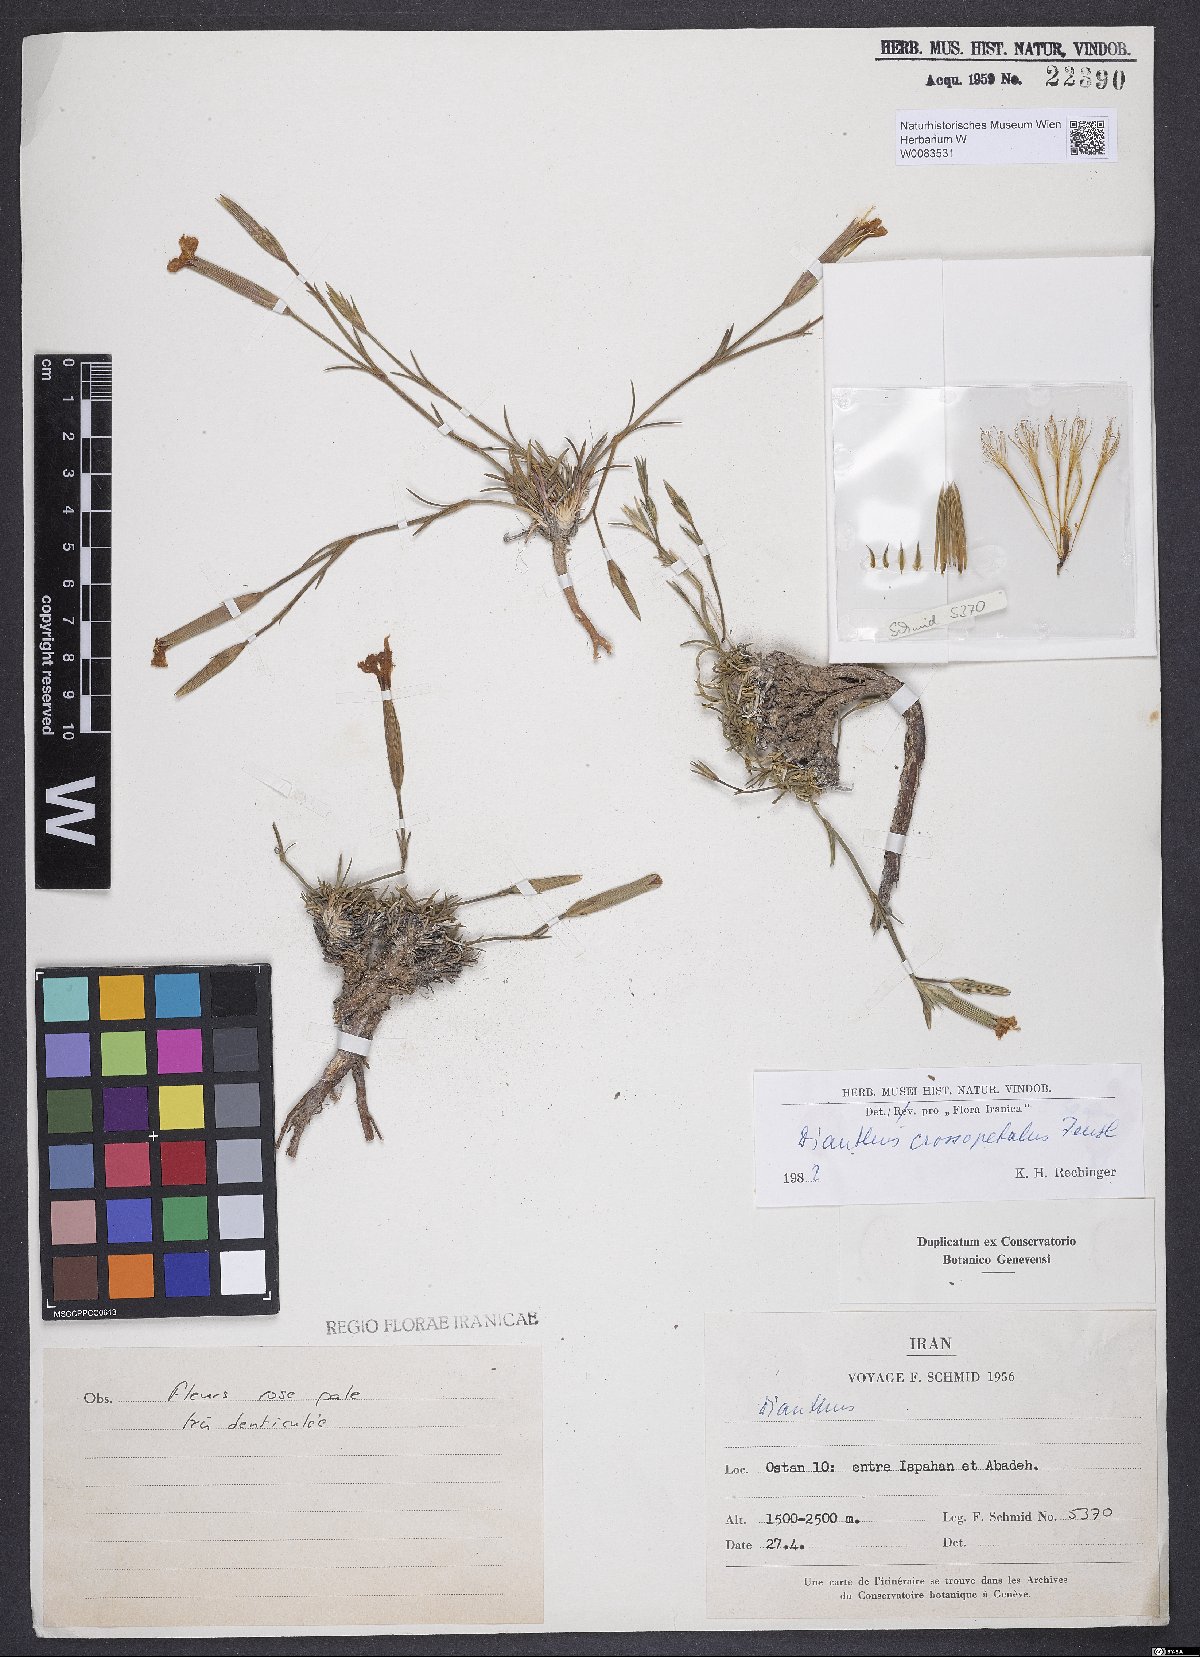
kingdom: Plantae
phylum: Tracheophyta
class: Magnoliopsida
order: Caryophyllales
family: Caryophyllaceae
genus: Dianthus
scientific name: Dianthus crossopetalus
